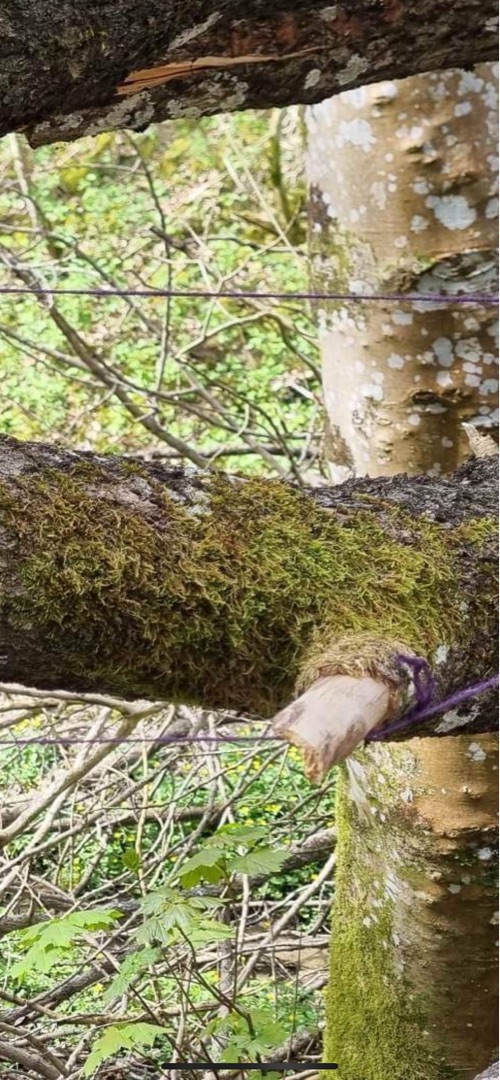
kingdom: Plantae
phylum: Bryophyta
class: Bryopsida
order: Hypnales
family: Hypnaceae
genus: Hypnum
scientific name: Hypnum
